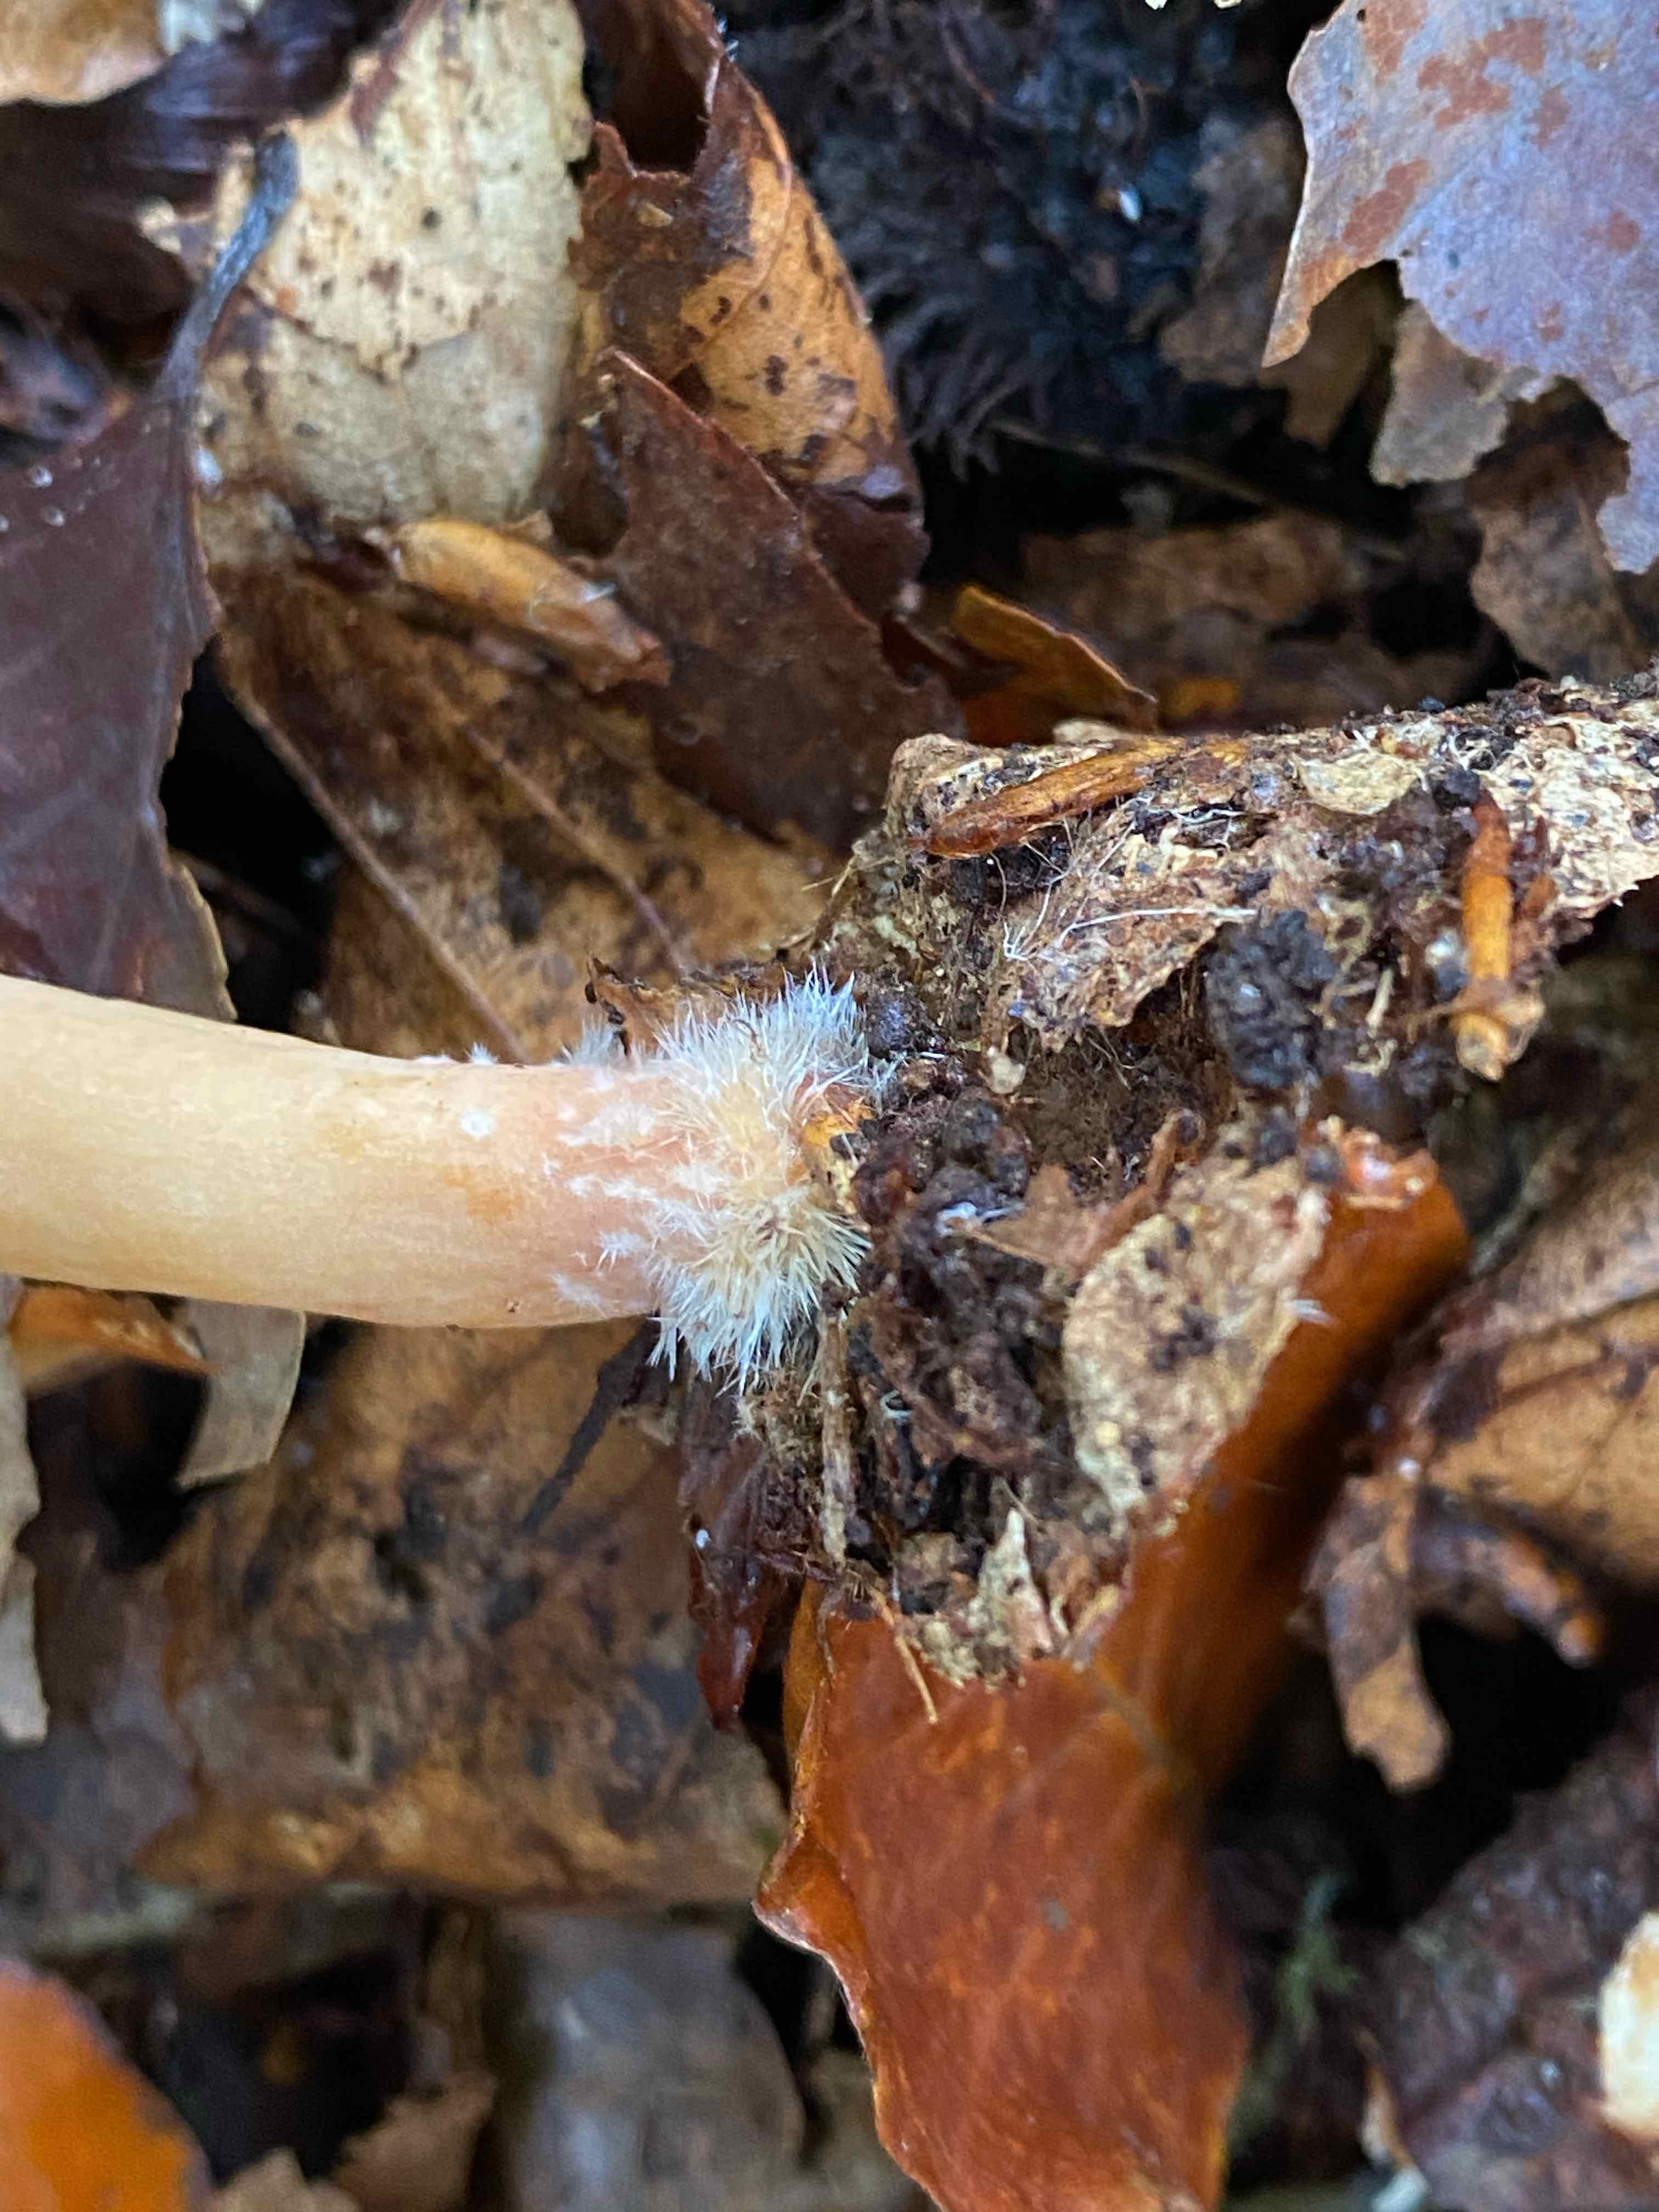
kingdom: Fungi
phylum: Basidiomycota
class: Agaricomycetes
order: Russulales
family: Russulaceae
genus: Lactarius
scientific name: Lactarius subdulcis
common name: sødlig mælkehat
